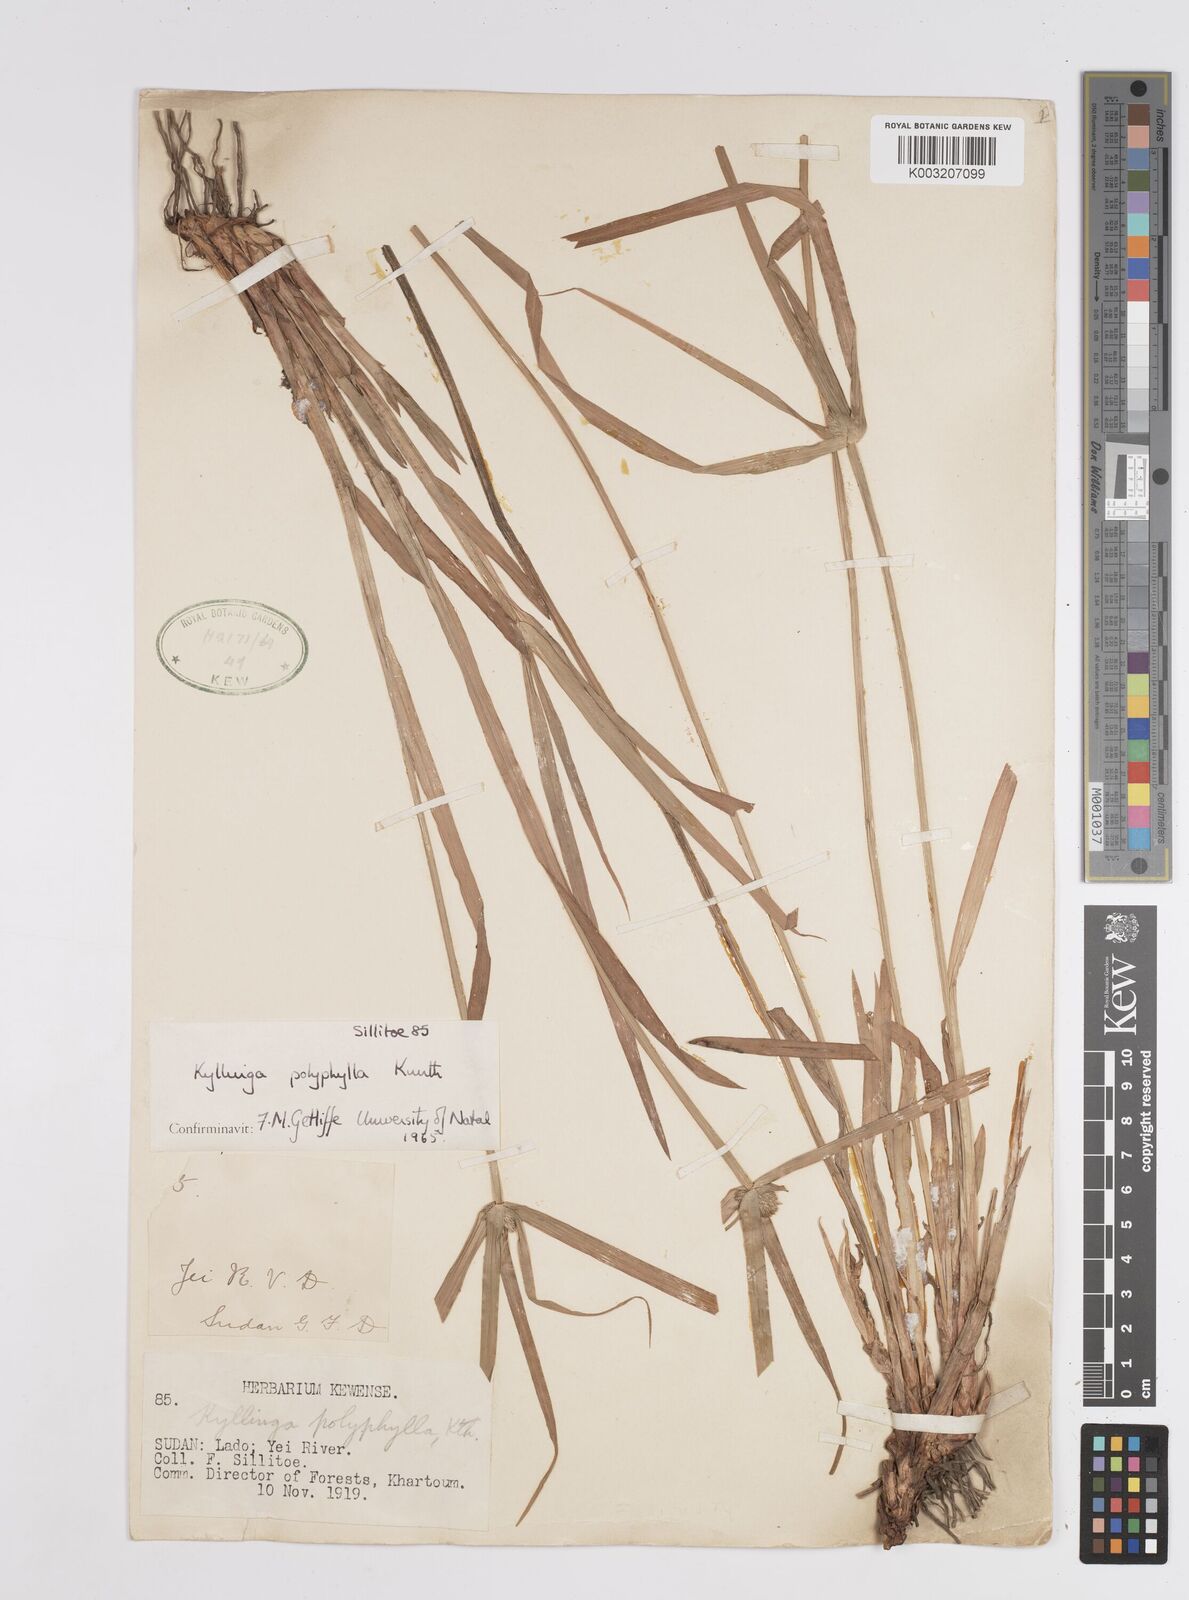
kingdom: Plantae
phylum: Tracheophyta
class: Liliopsida
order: Poales
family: Cyperaceae
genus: Cyperus
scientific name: Cyperus
